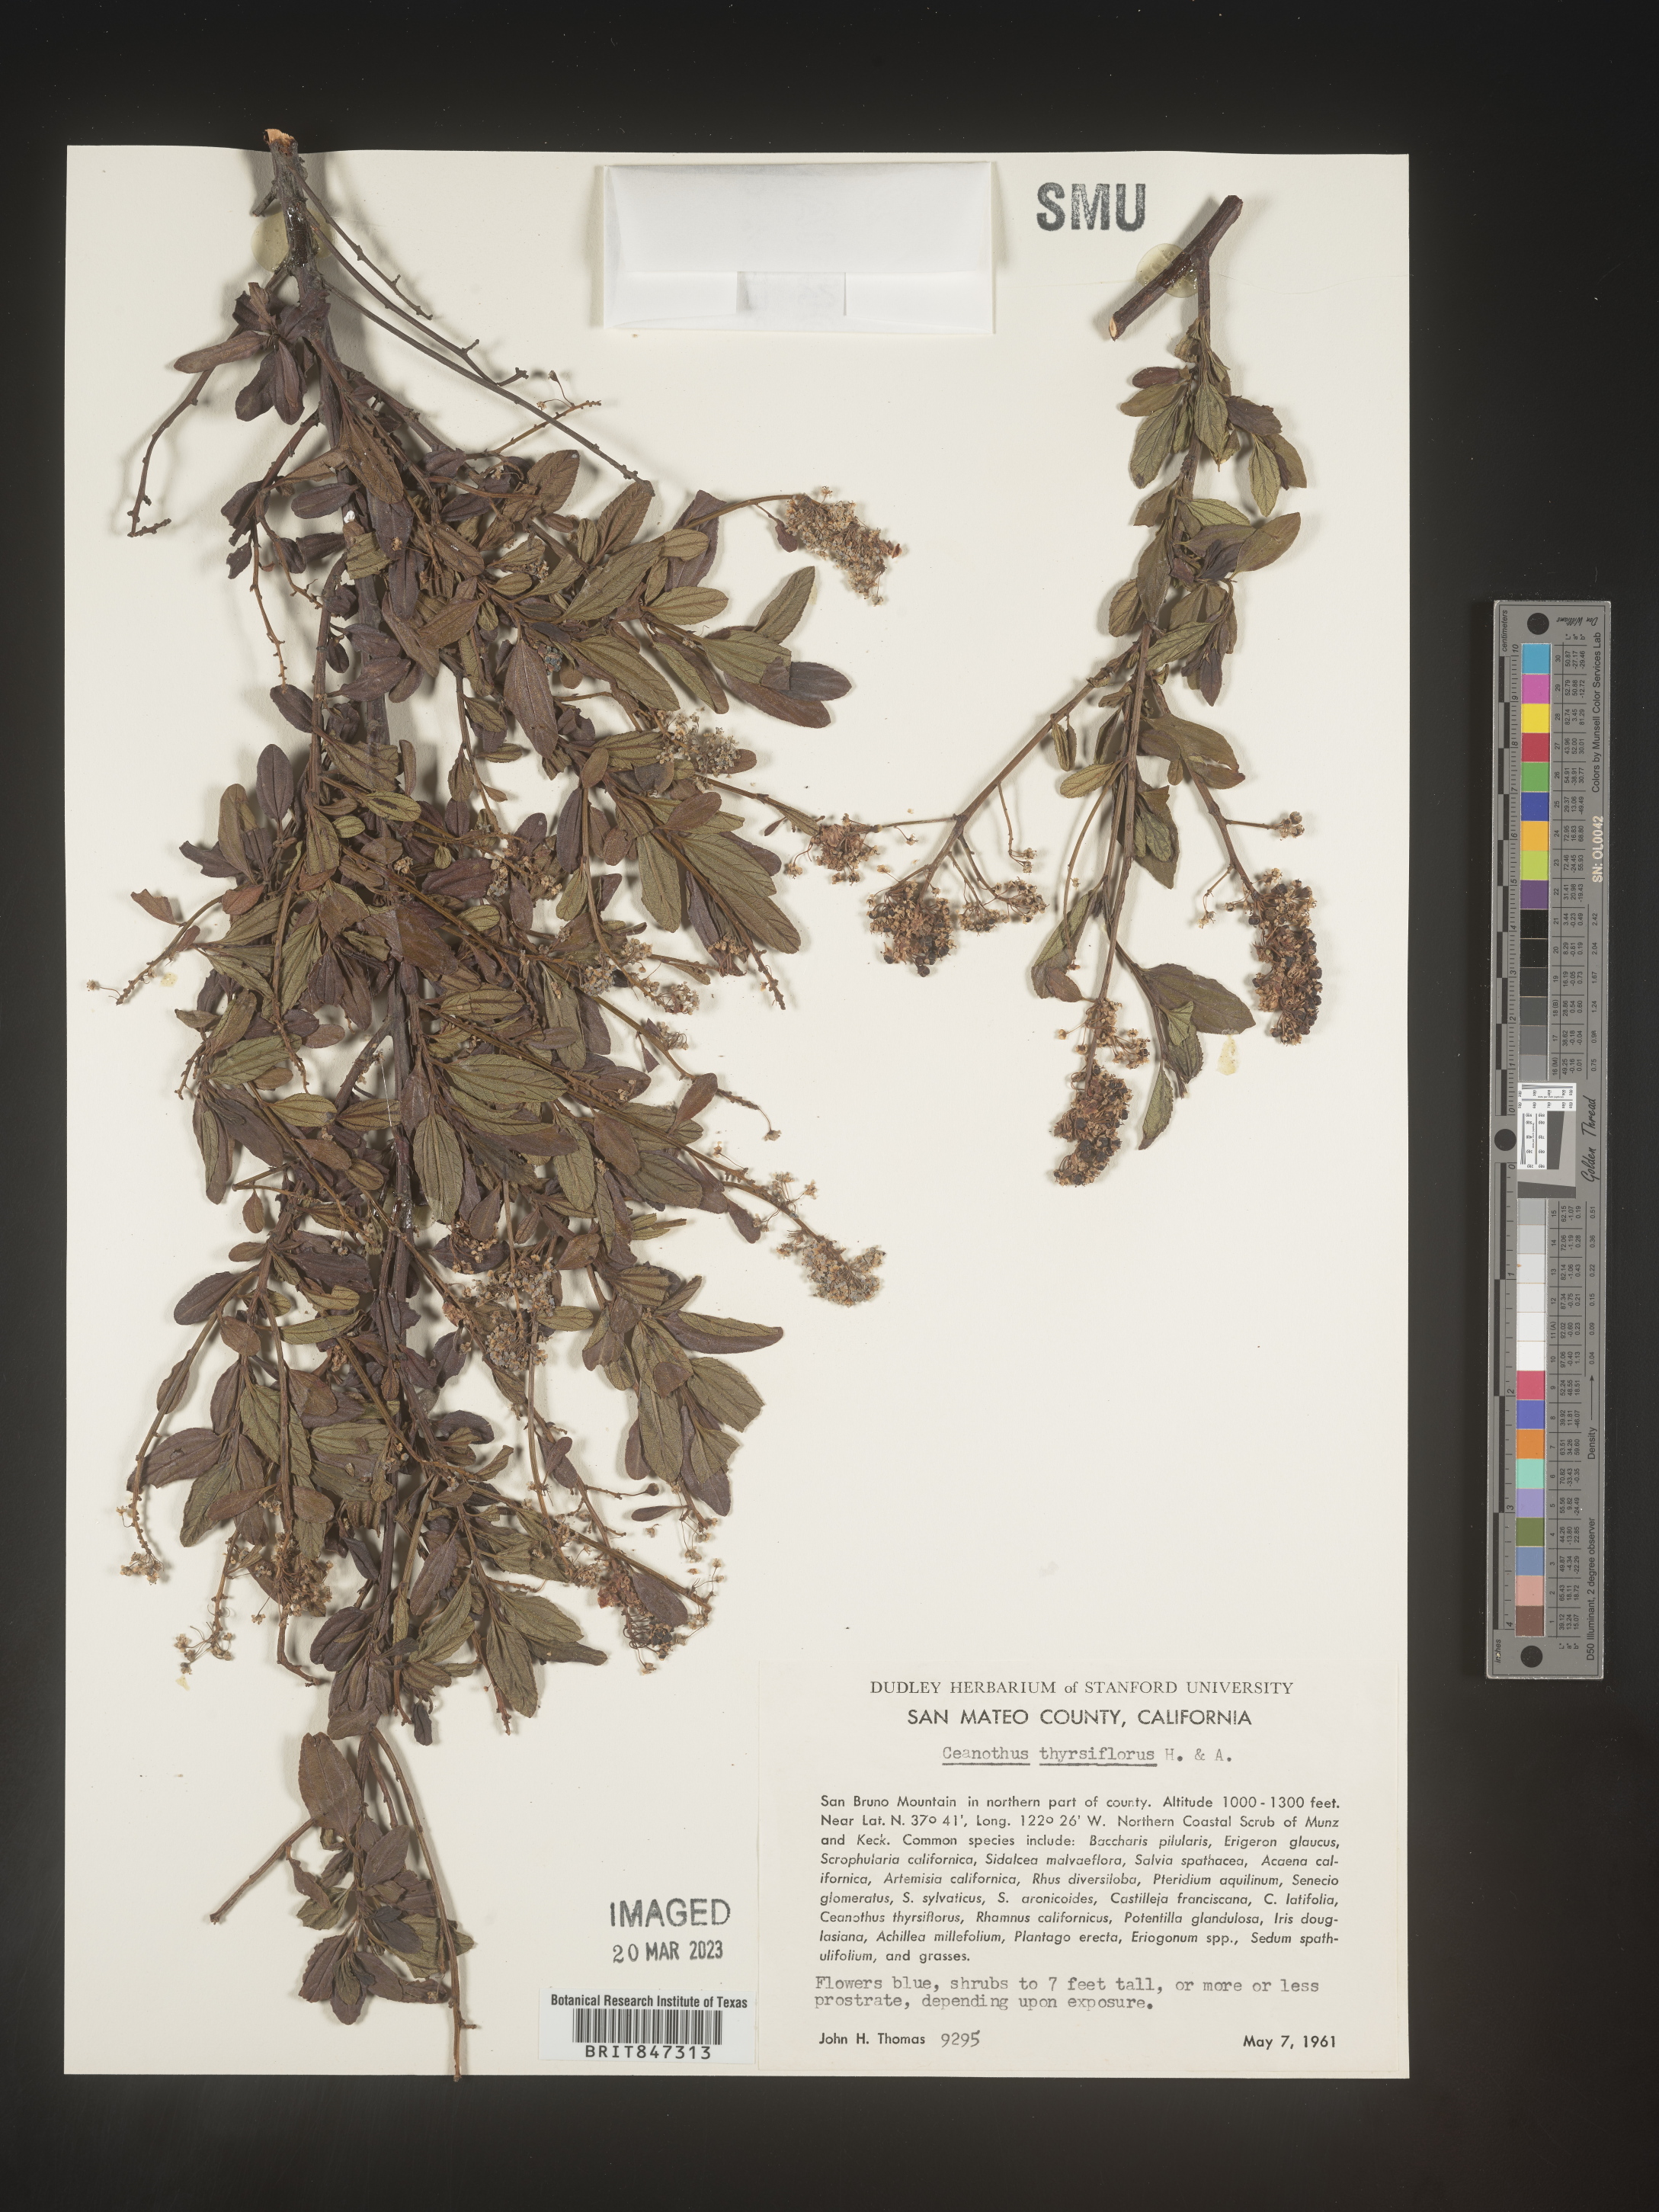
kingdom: Plantae
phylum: Tracheophyta
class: Magnoliopsida
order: Rosales
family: Rhamnaceae
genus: Ceanothus
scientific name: Ceanothus
